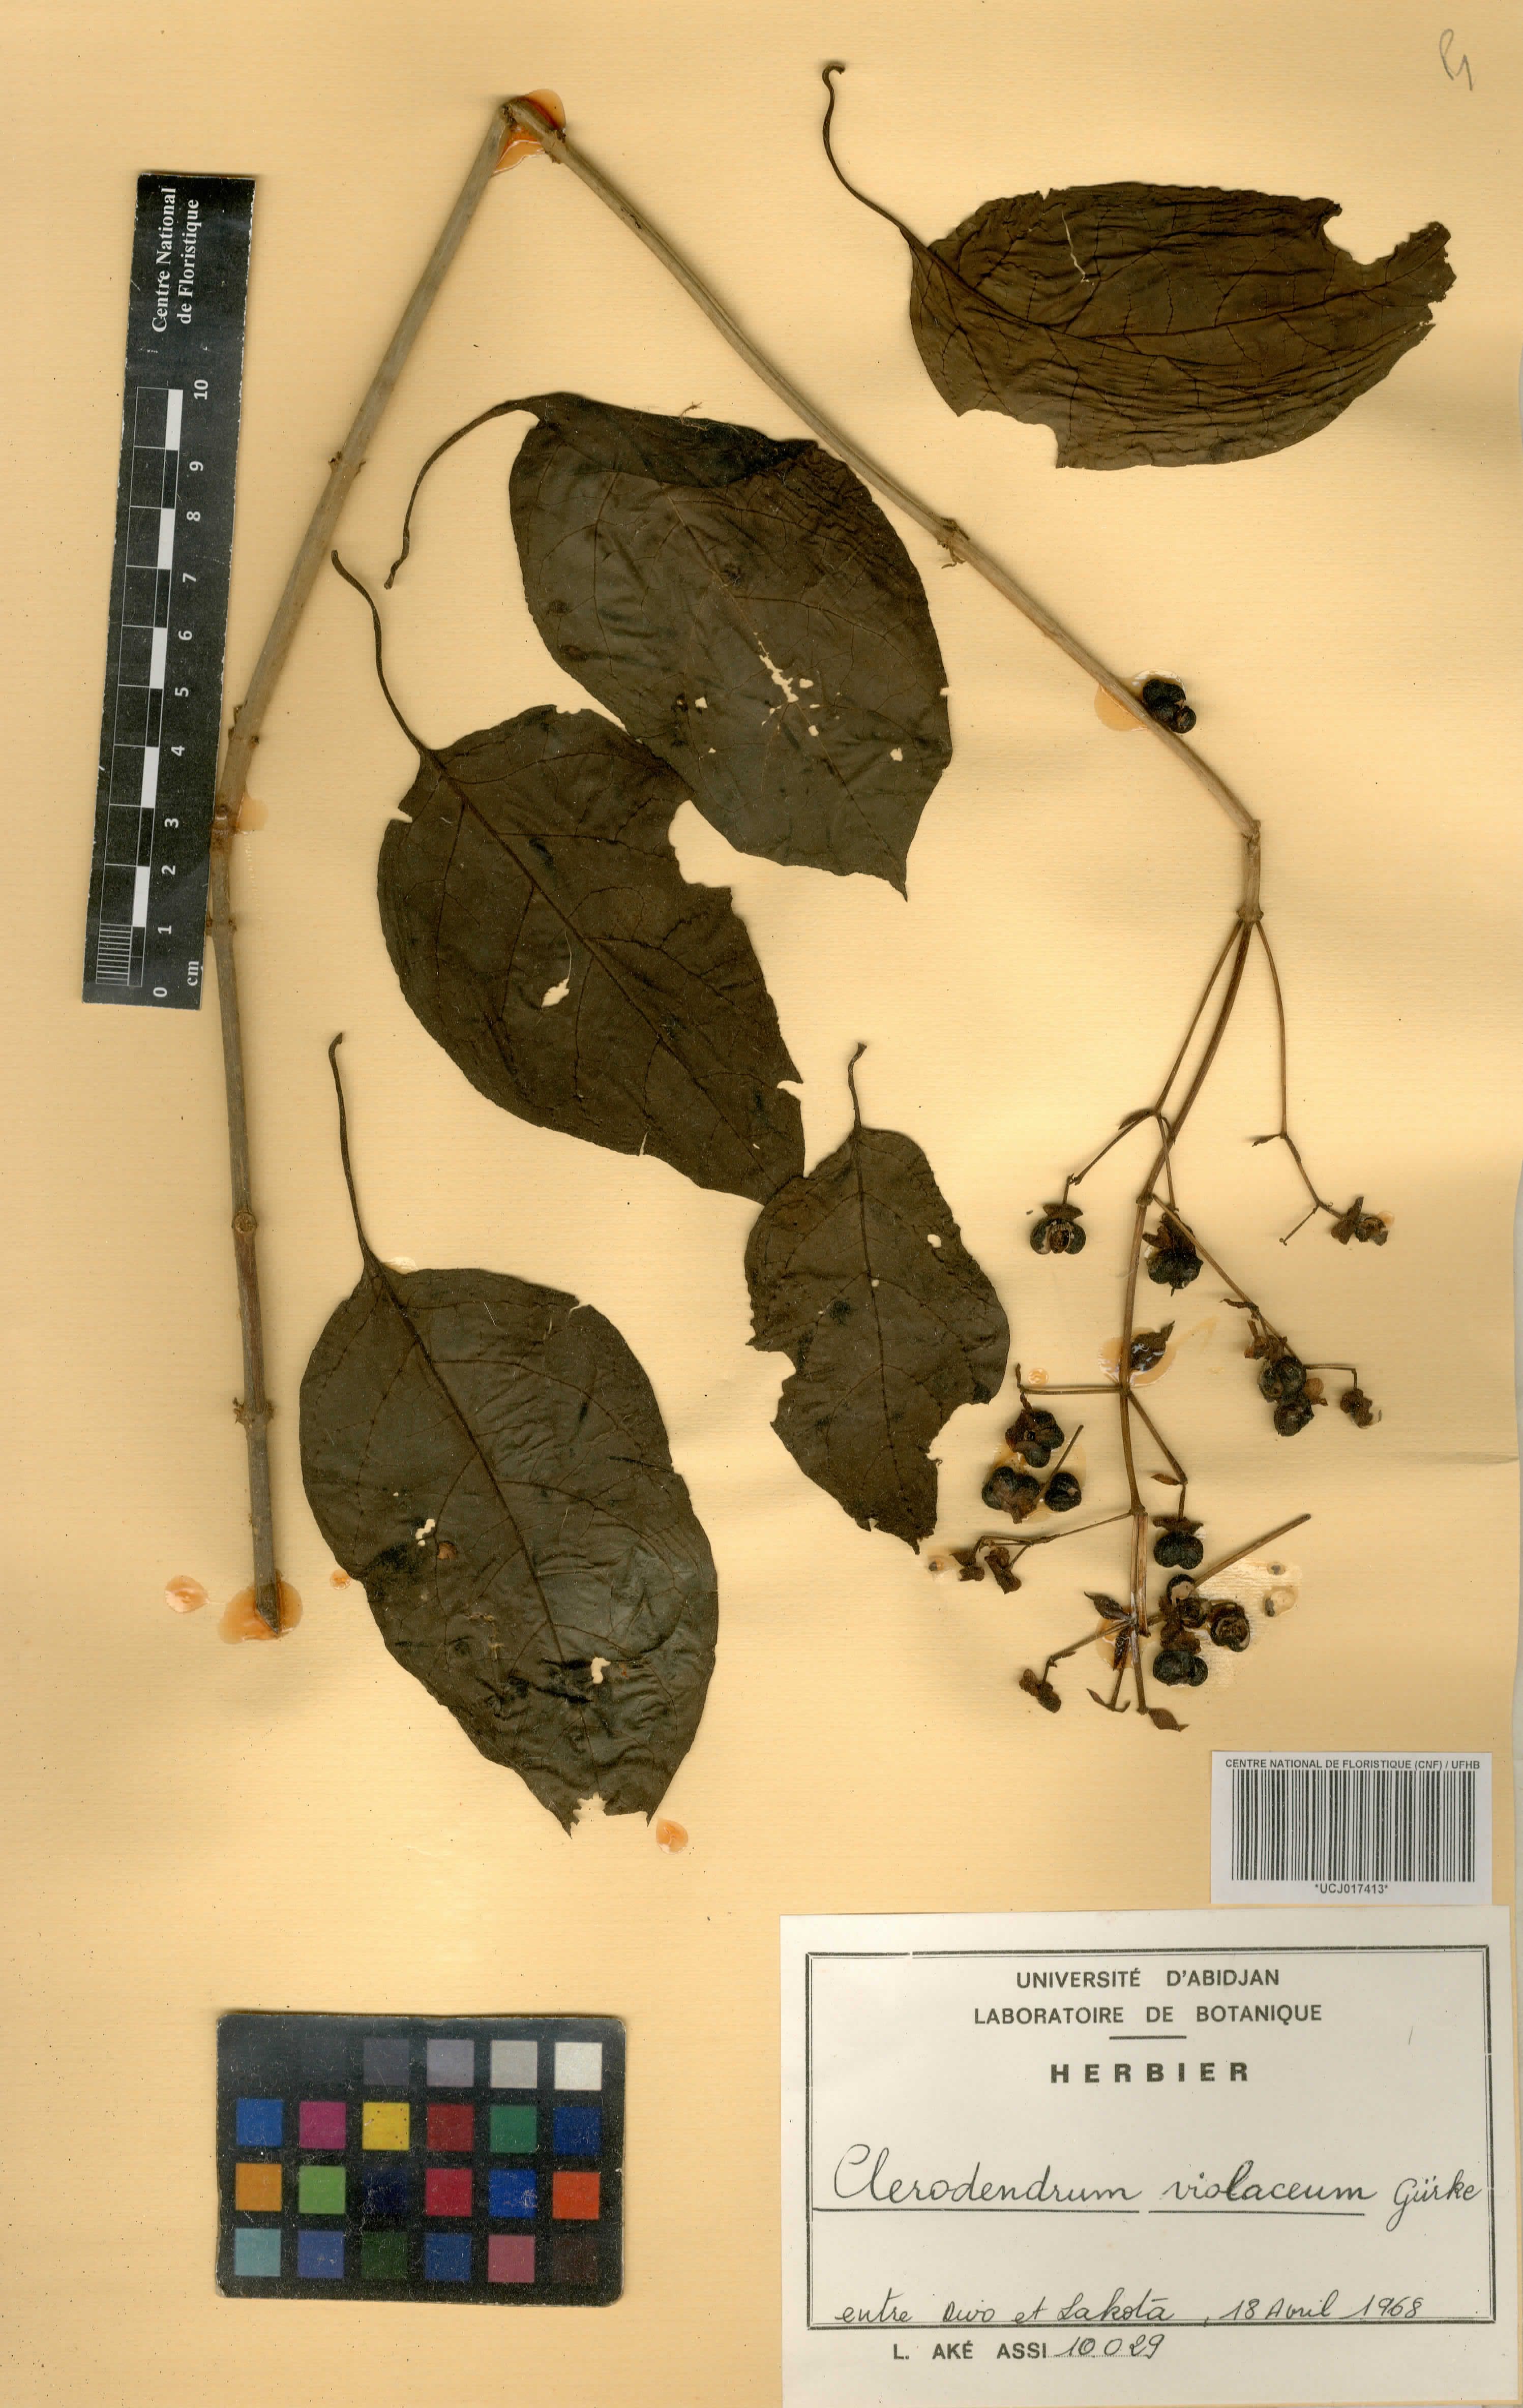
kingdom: Plantae
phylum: Tracheophyta
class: Magnoliopsida
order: Lamiales
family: Lamiaceae
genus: Rotheca
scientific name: Rotheca violacea
